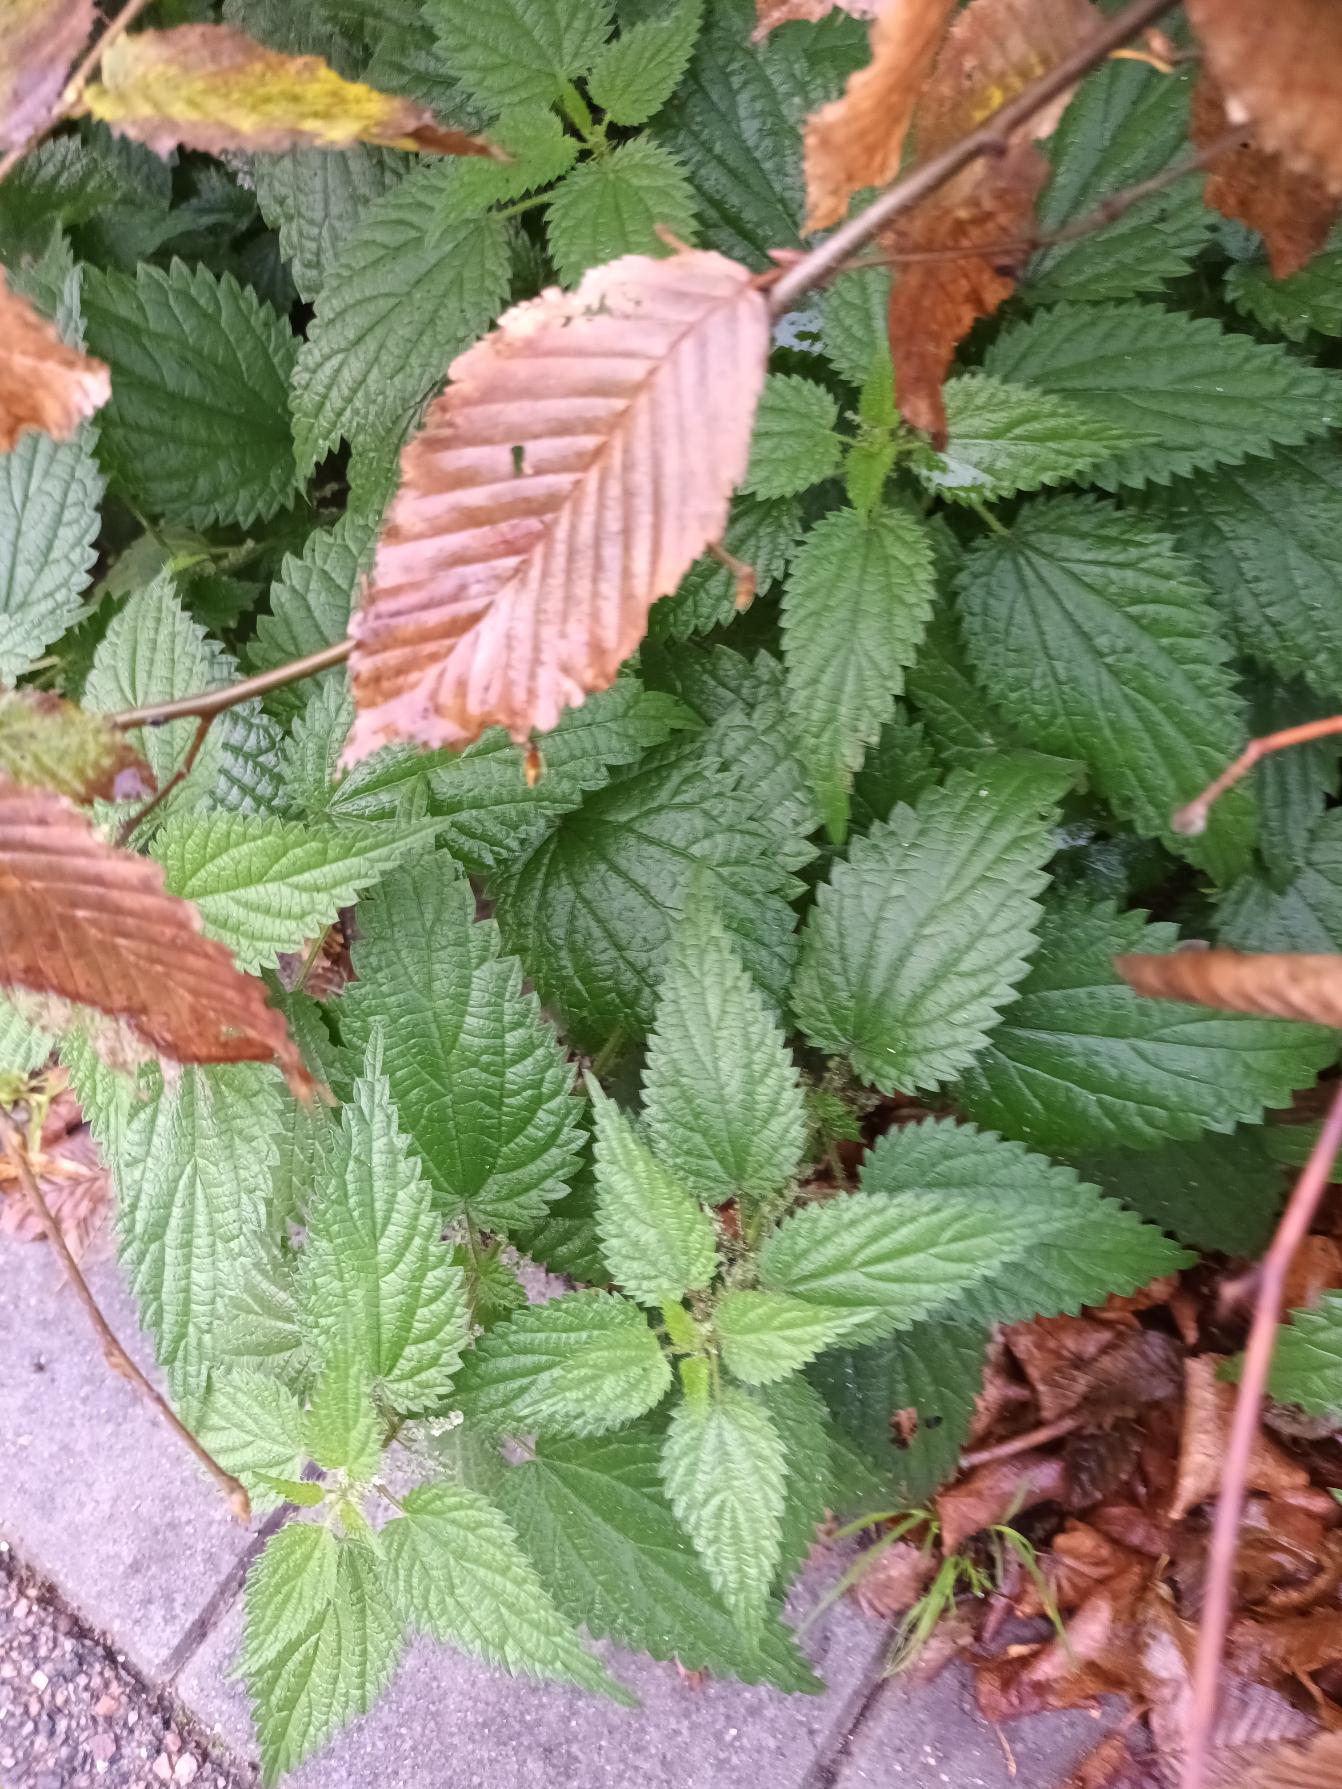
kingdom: Plantae
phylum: Tracheophyta
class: Magnoliopsida
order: Rosales
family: Urticaceae
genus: Urtica
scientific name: Urtica dioica
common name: Stor nælde
